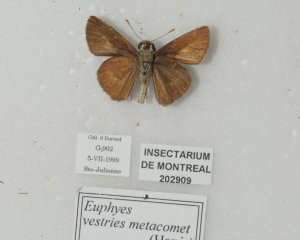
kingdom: Animalia
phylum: Arthropoda
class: Insecta
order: Lepidoptera
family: Hesperiidae
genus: Euphyes
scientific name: Euphyes vestris
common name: Dun Skipper
